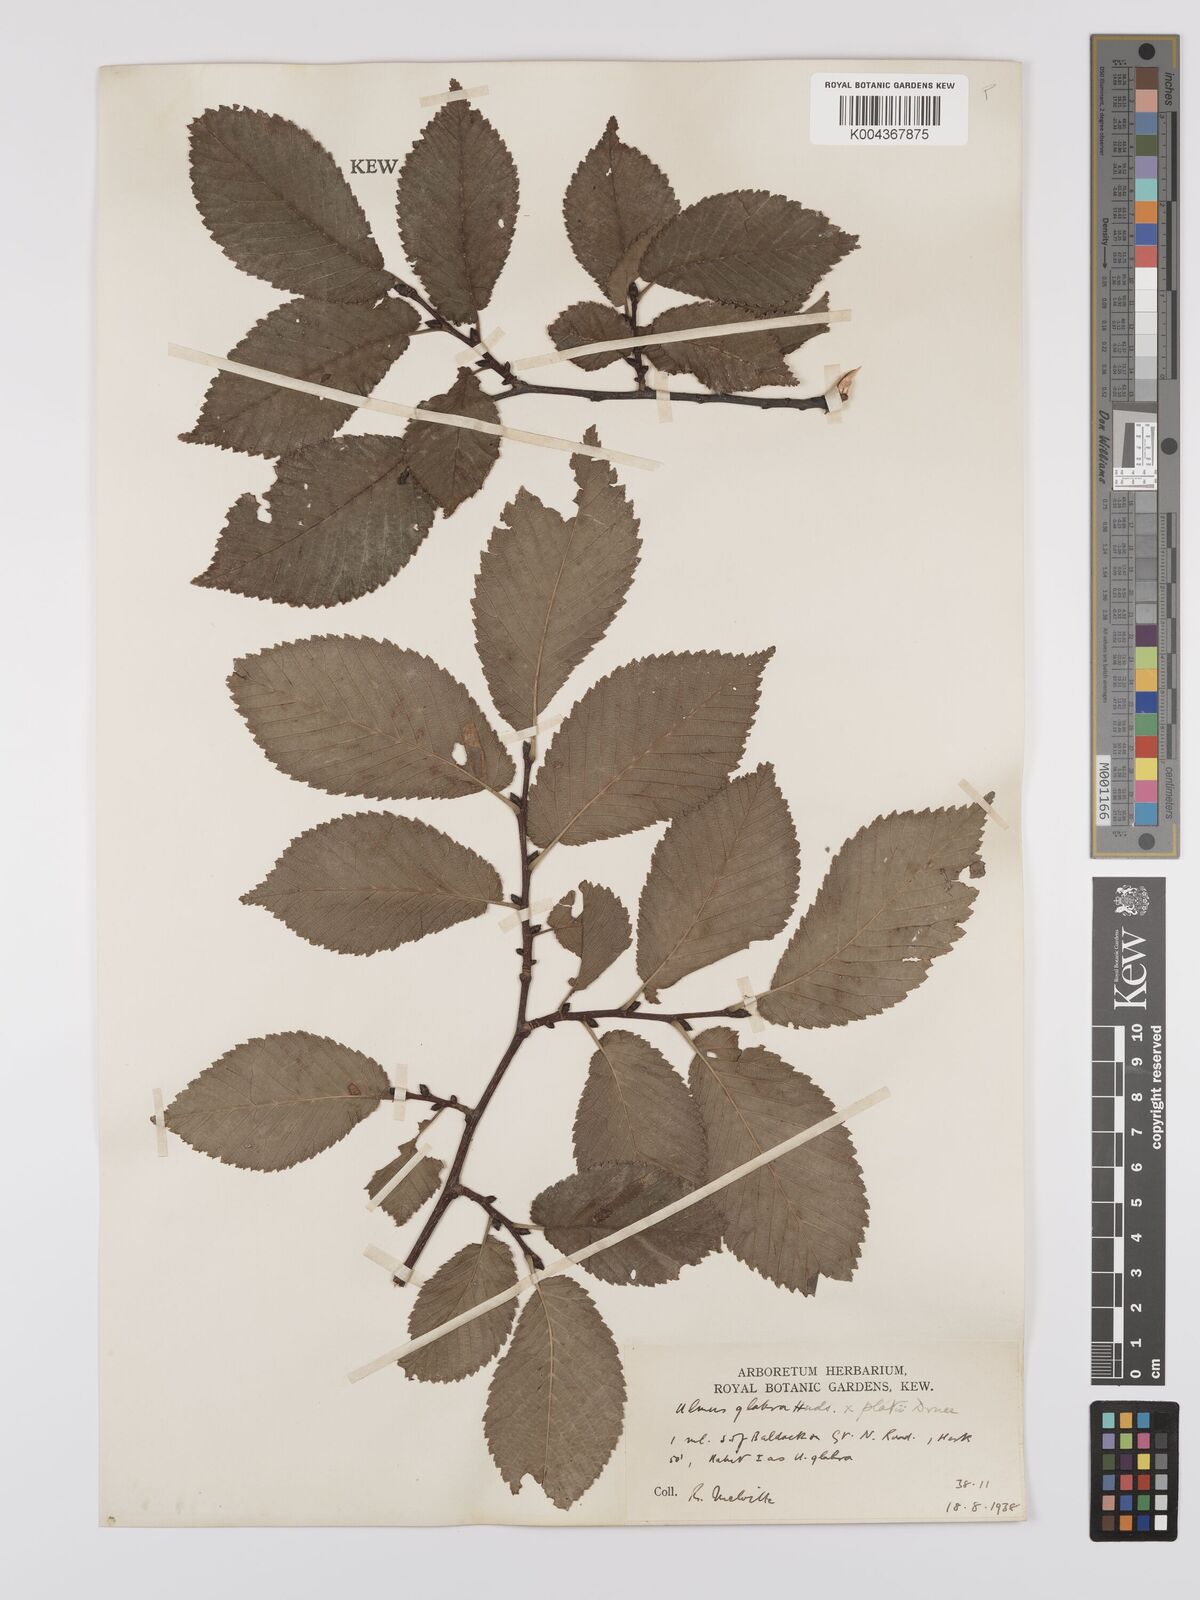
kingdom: Plantae
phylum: Tracheophyta
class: Magnoliopsida
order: Rosales
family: Ulmaceae
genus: Ulmus
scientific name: Ulmus
